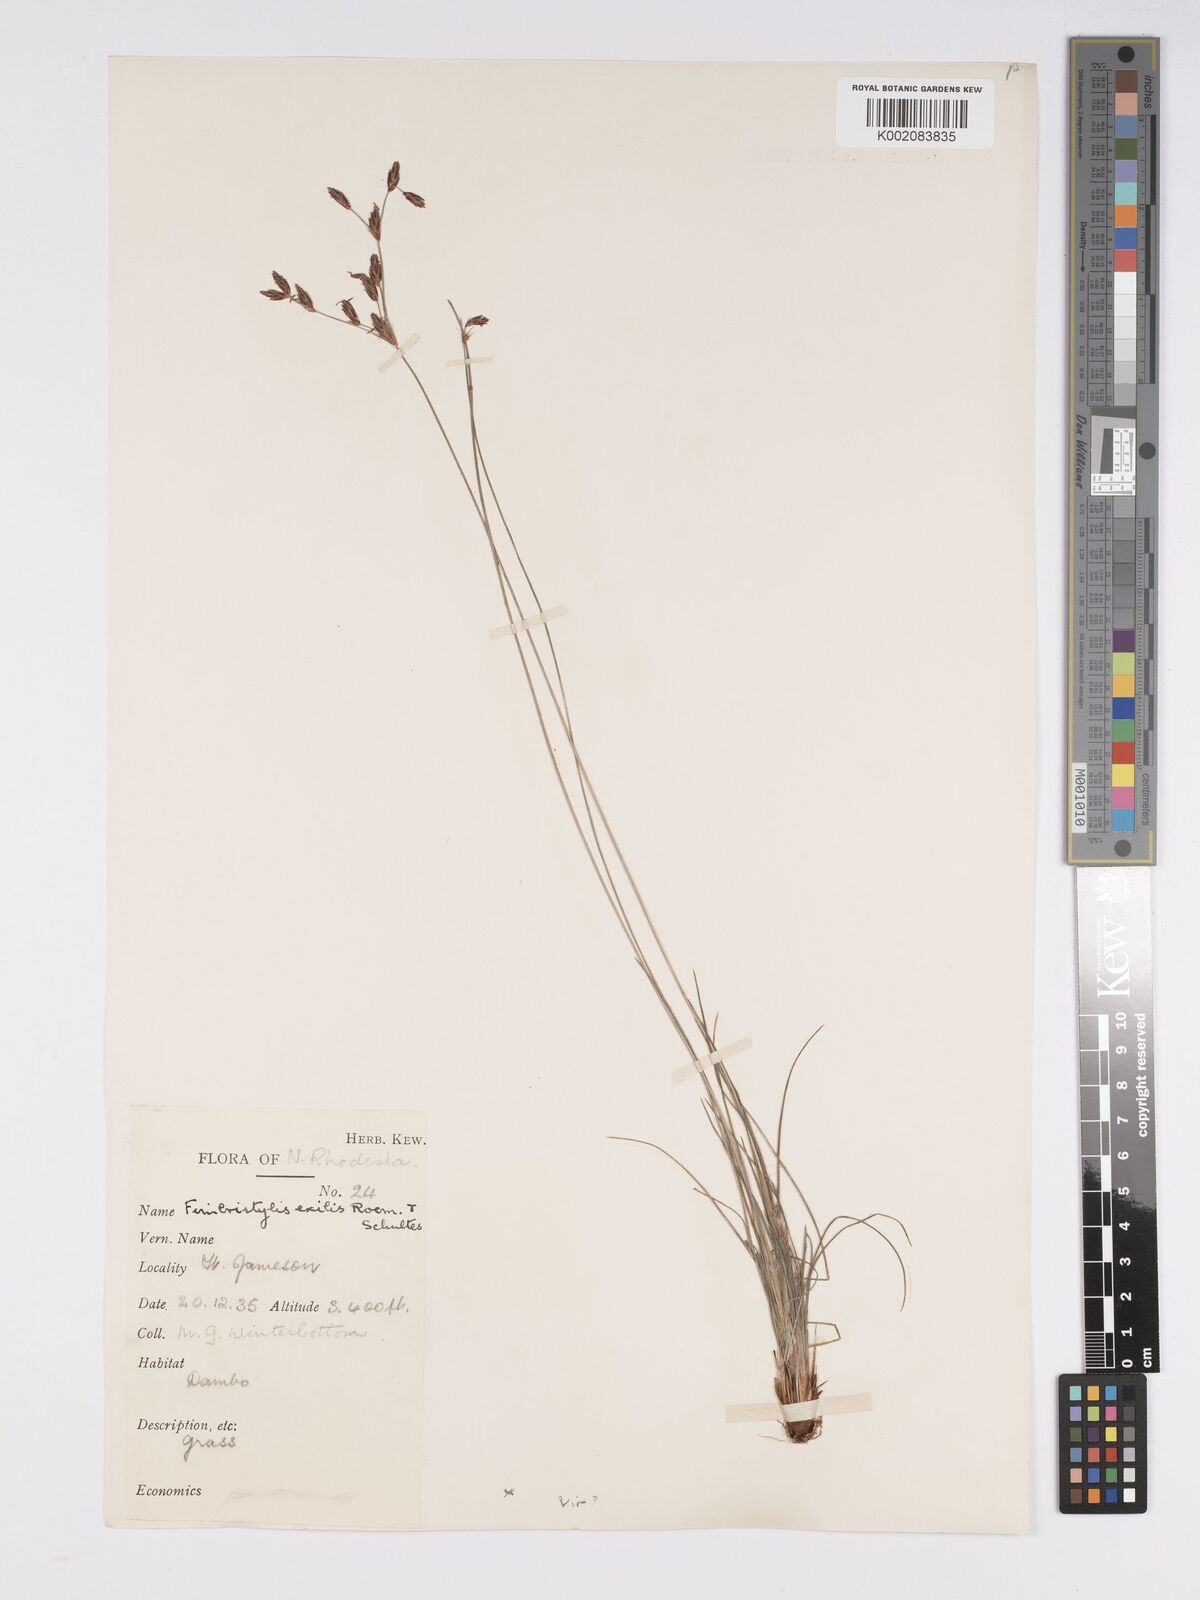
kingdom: Plantae
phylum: Tracheophyta
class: Liliopsida
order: Poales
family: Cyperaceae
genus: Bulbostylis
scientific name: Bulbostylis hispidula
